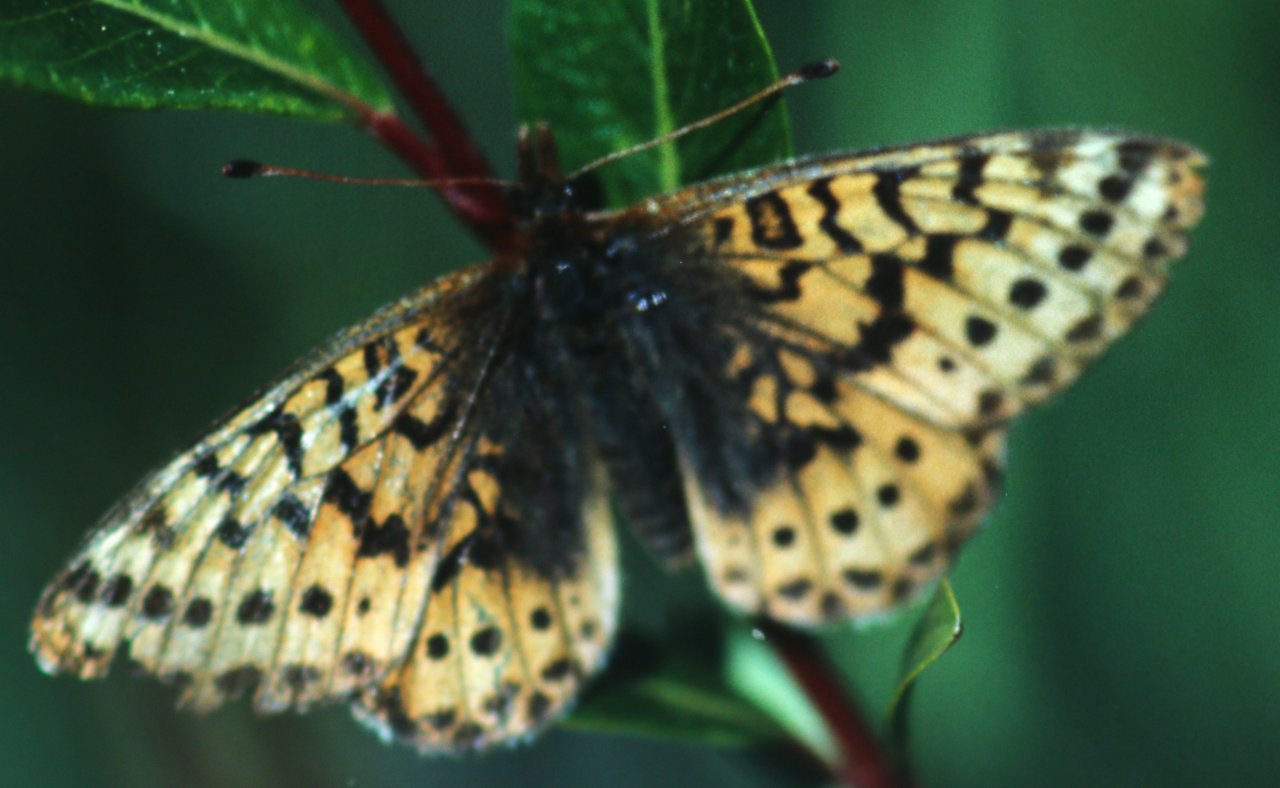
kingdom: Animalia
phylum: Arthropoda
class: Insecta
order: Lepidoptera
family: Nymphalidae
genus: Boloria
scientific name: Boloria frigga
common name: Frigga Fritillary
